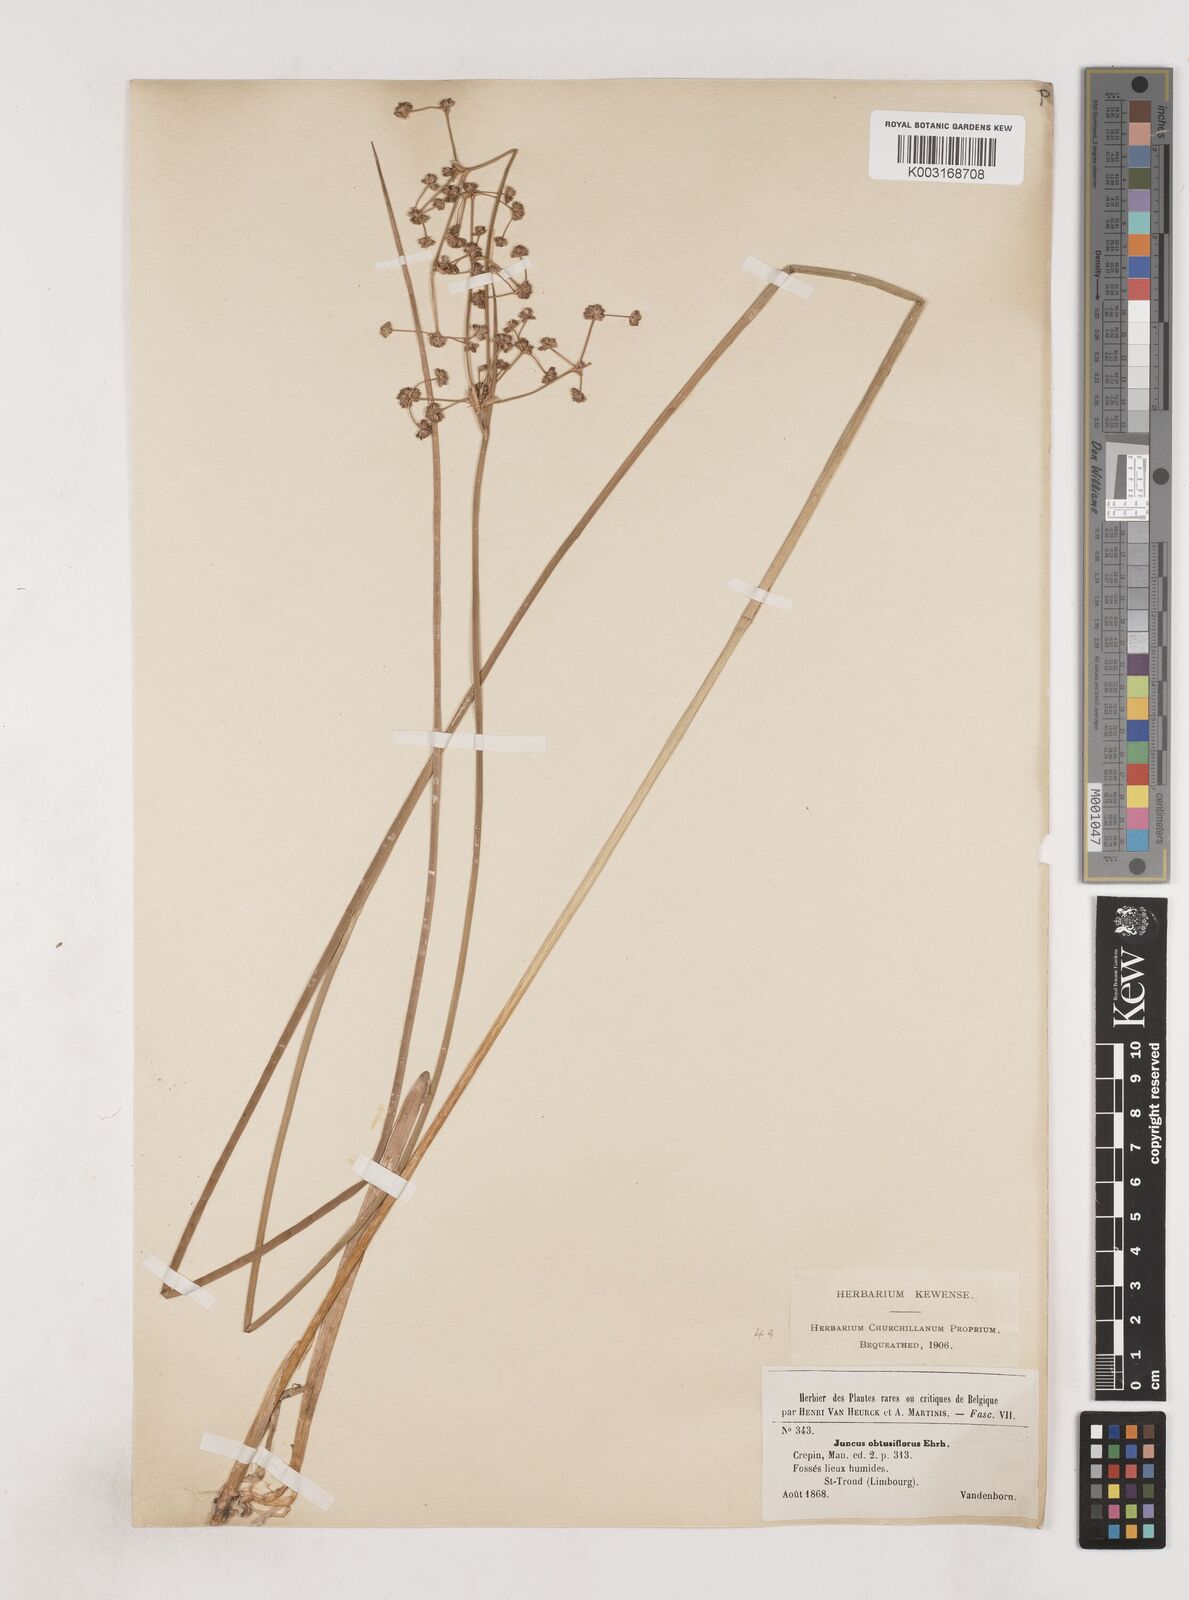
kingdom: Plantae
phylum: Tracheophyta
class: Liliopsida
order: Poales
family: Juncaceae
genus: Juncus
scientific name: Juncus subnodulosus
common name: Blunt-flowered rush
